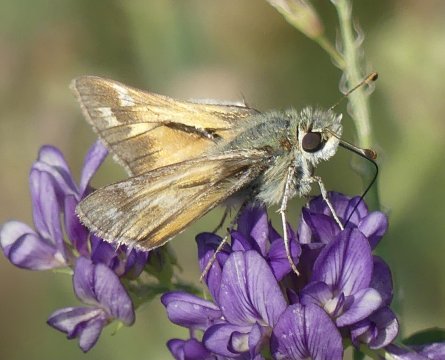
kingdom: Animalia
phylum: Arthropoda
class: Insecta
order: Lepidoptera
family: Hesperiidae
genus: Hesperia
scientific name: Hesperia
